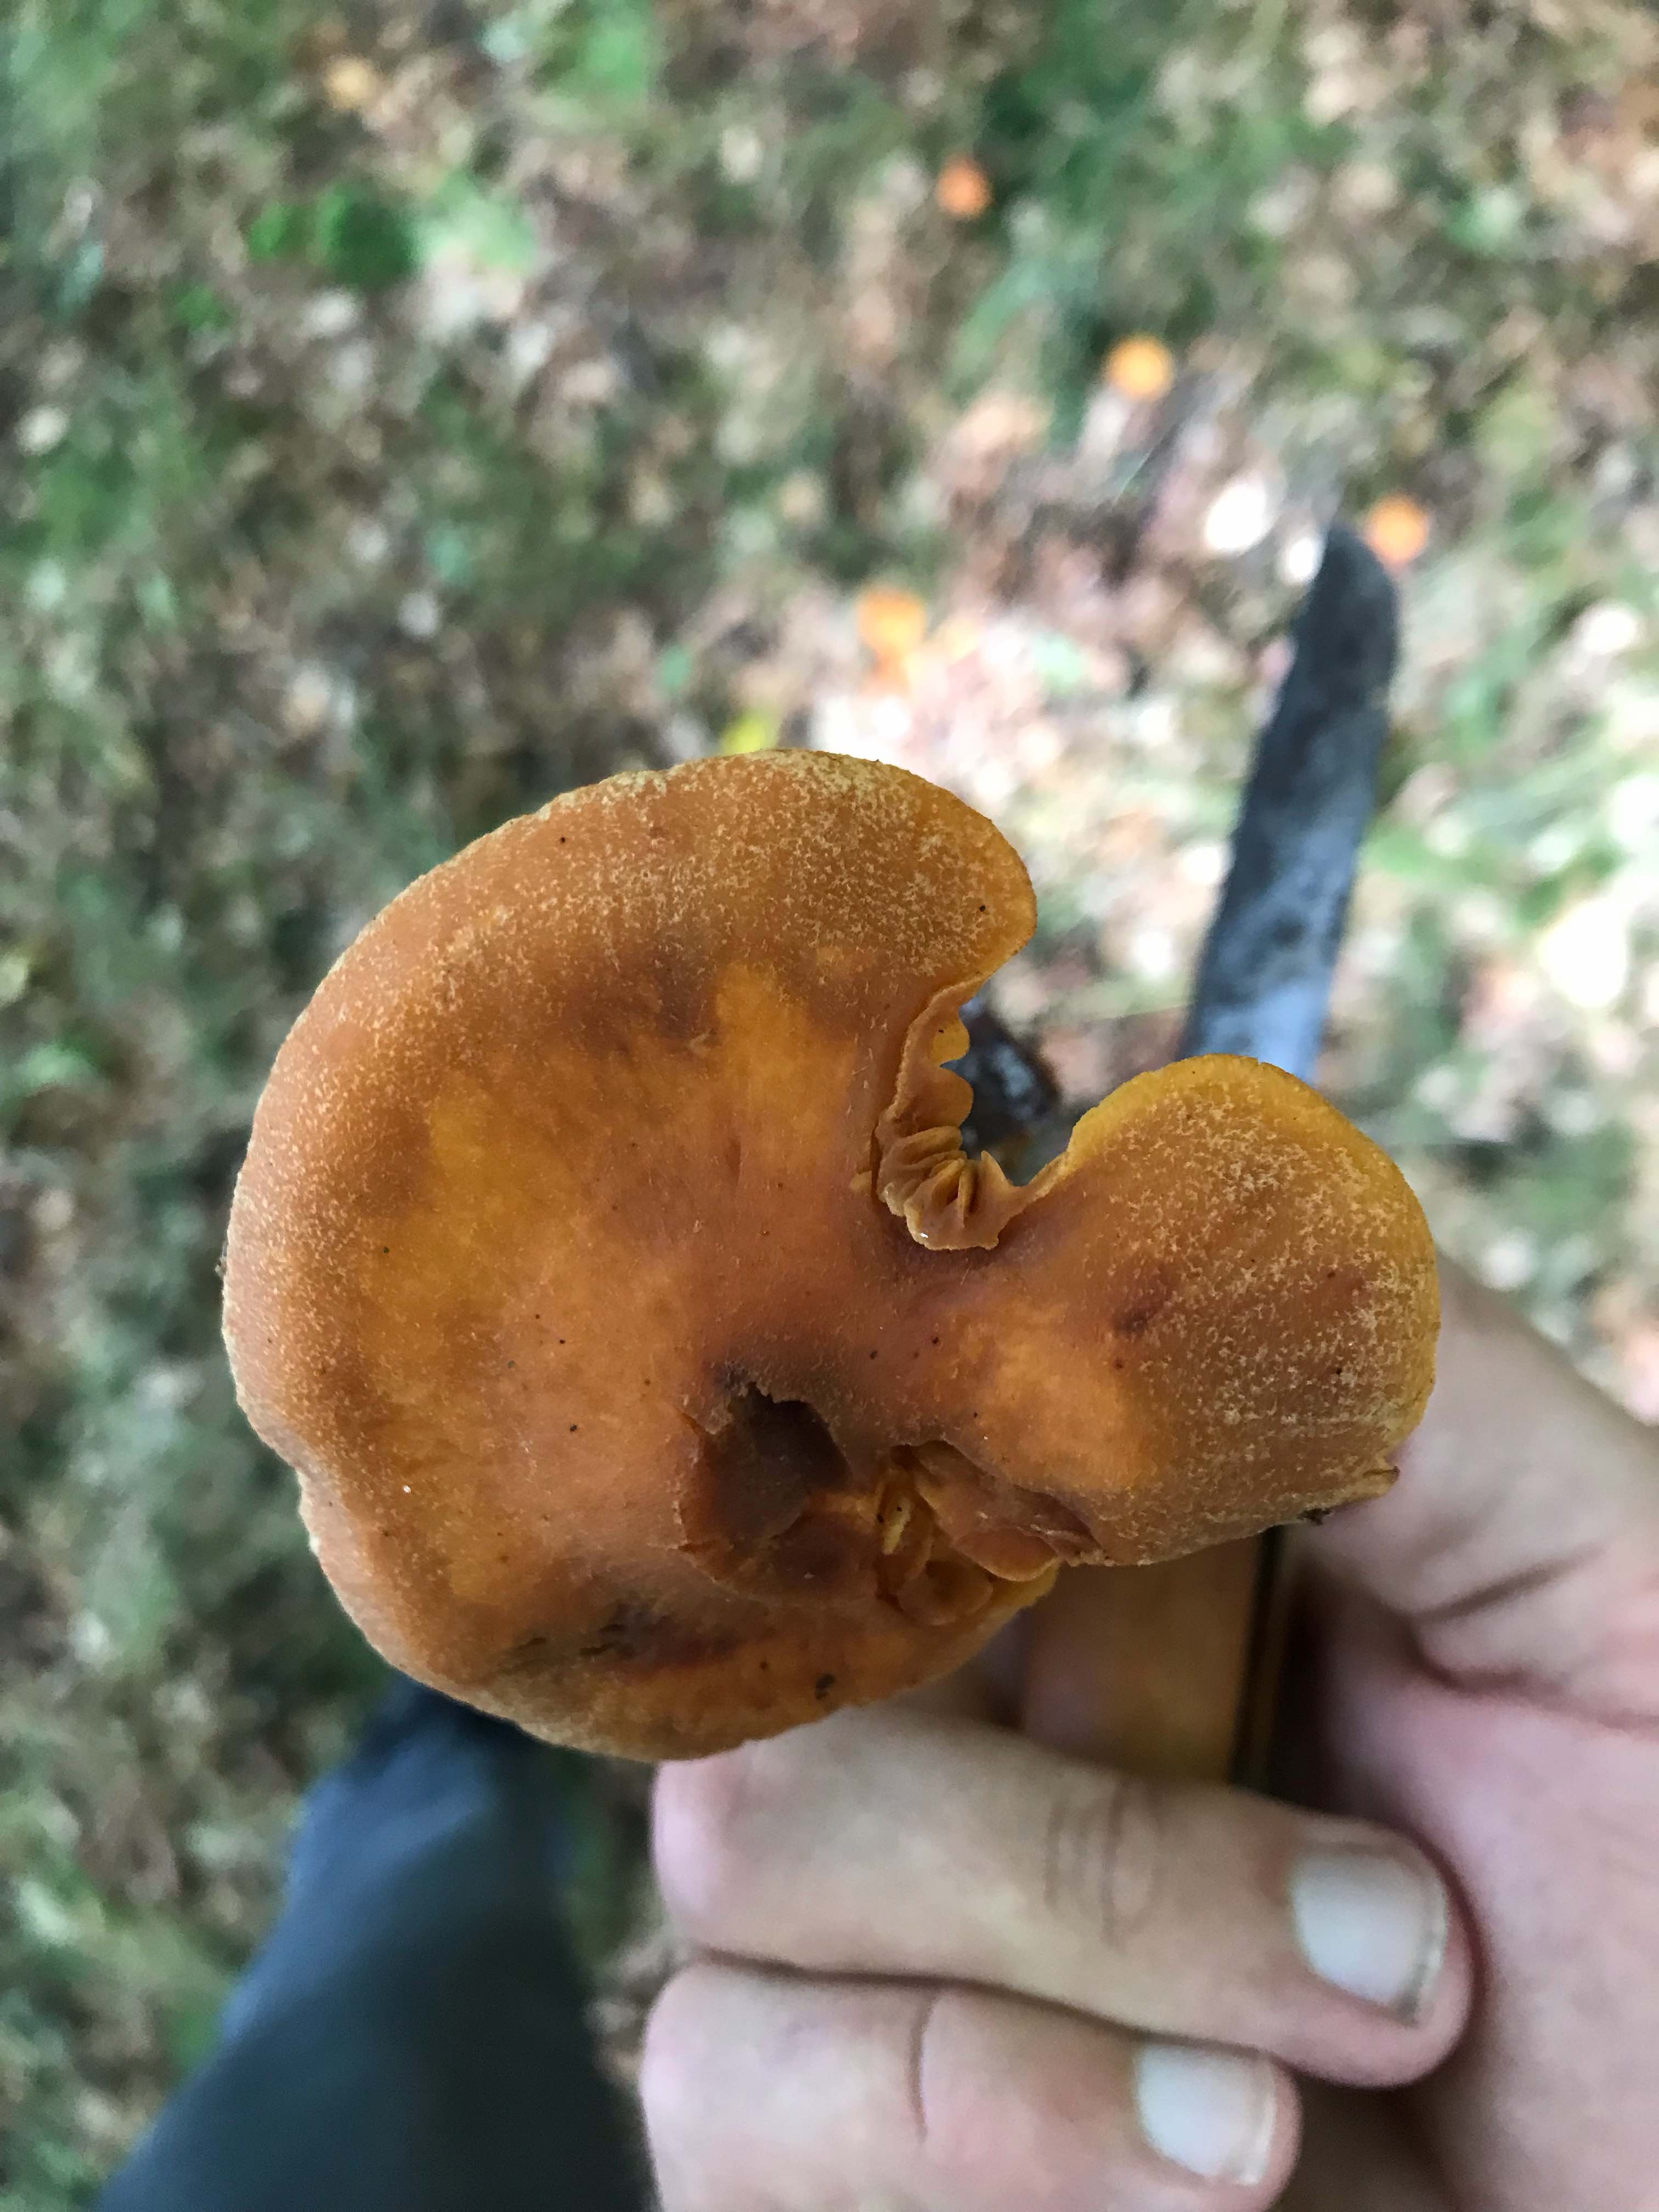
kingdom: Fungi
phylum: Basidiomycota
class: Agaricomycetes
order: Agaricales
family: Cortinariaceae
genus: Cortinarius
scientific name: Cortinarius
